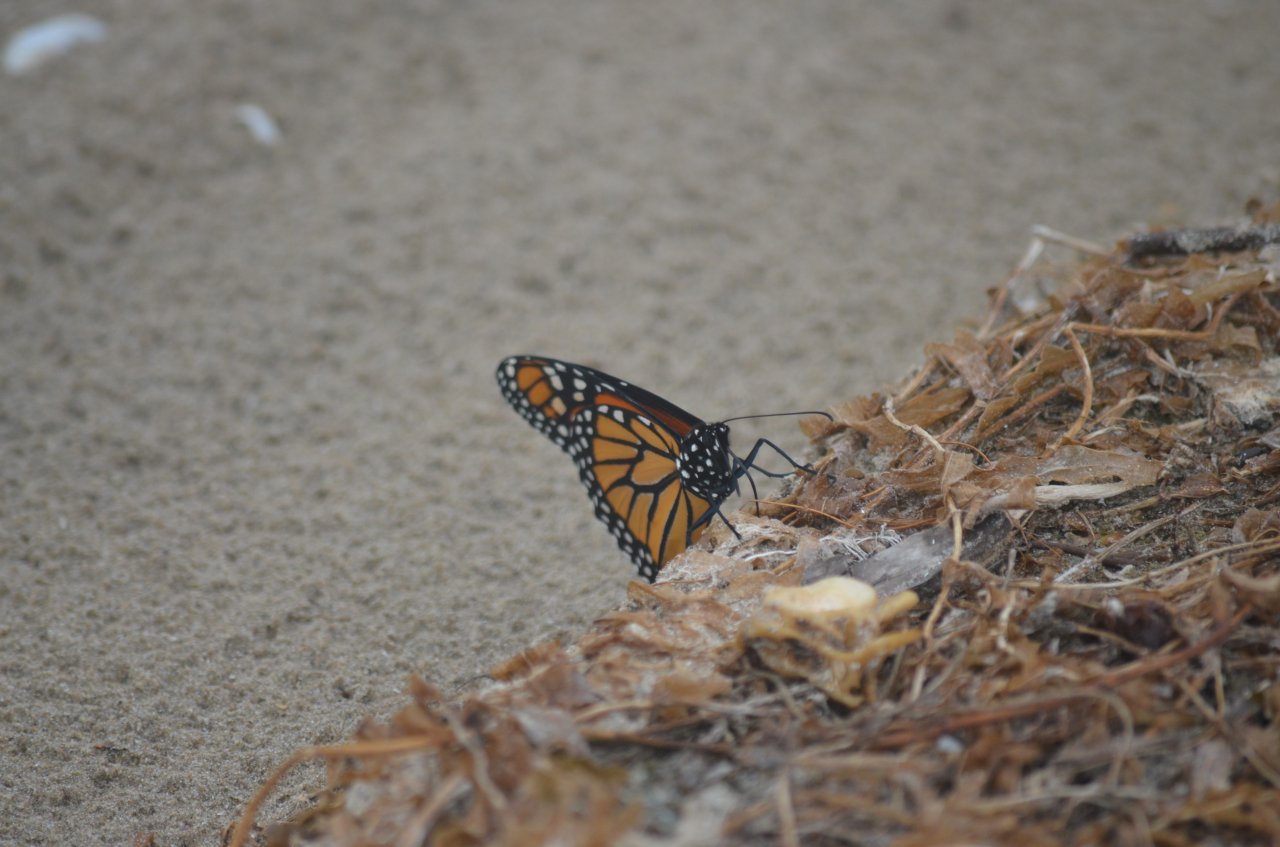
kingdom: Animalia
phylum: Arthropoda
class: Insecta
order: Lepidoptera
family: Nymphalidae
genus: Danaus
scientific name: Danaus plexippus
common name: Monarch
